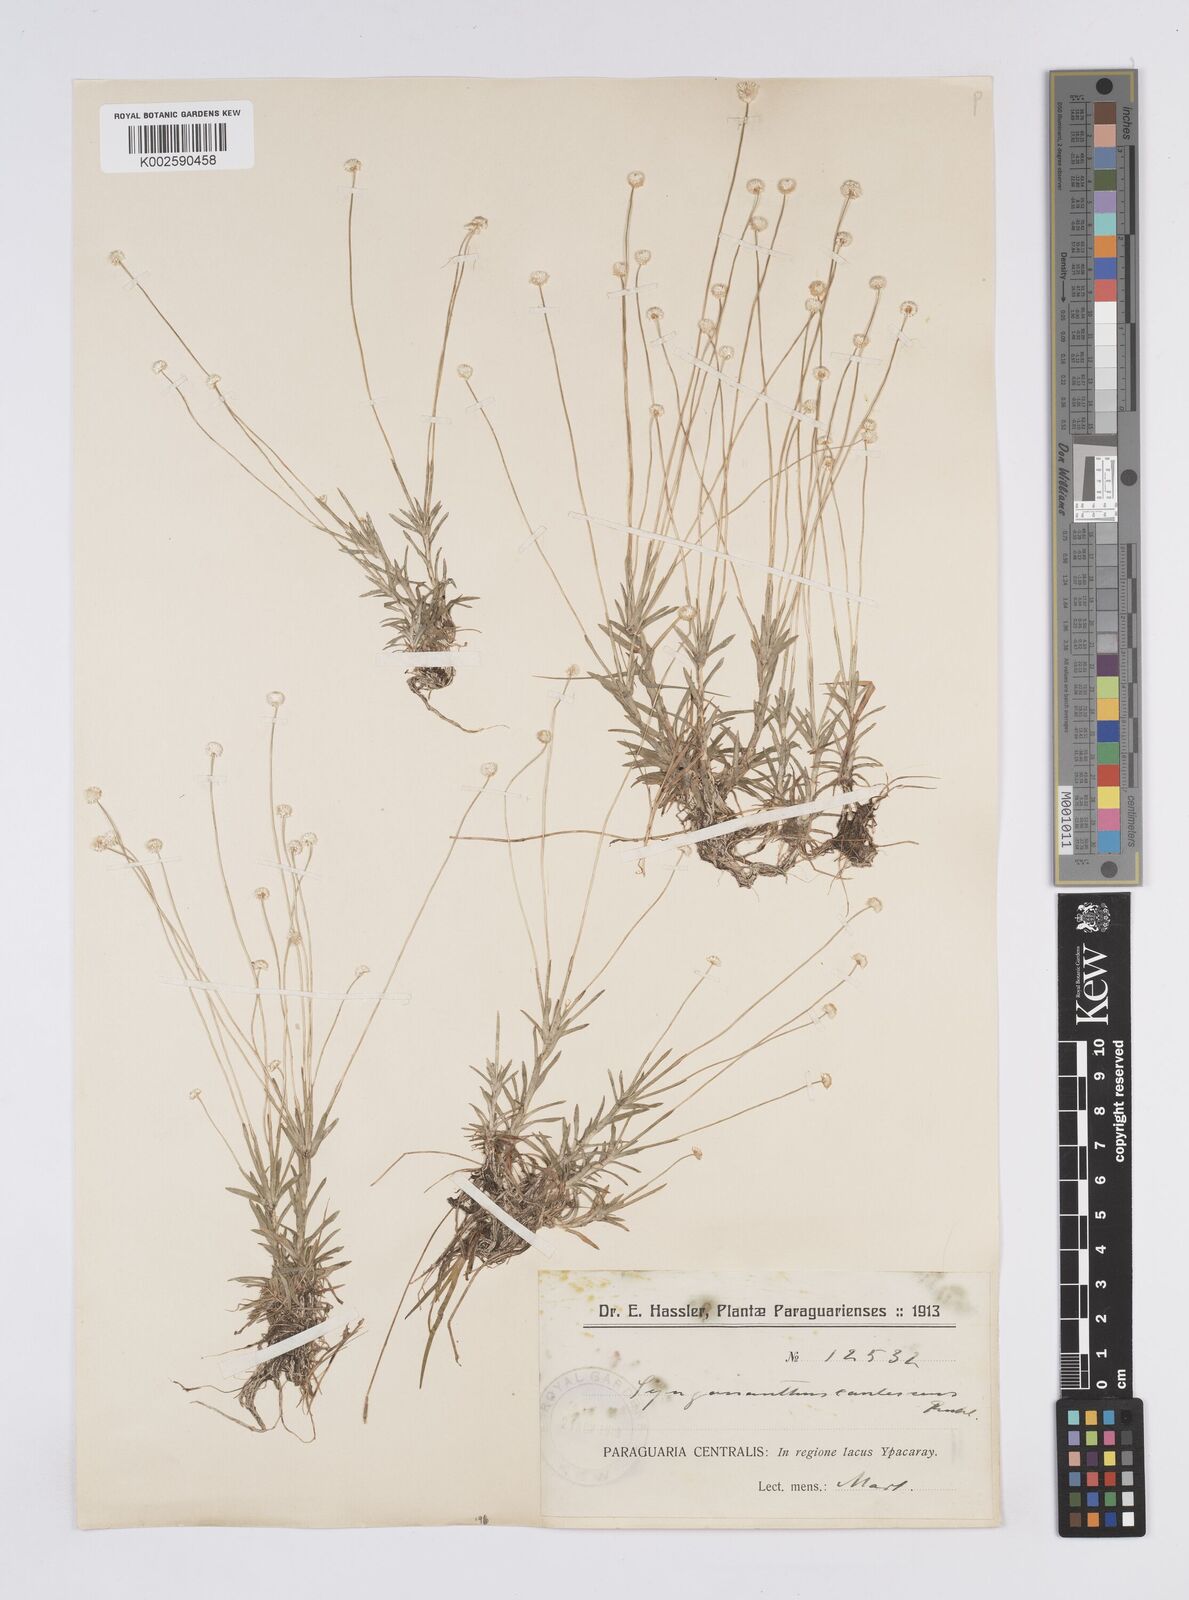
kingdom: Plantae
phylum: Tracheophyta
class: Liliopsida
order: Poales
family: Eriocaulaceae
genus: Syngonanthus
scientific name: Syngonanthus caulescens
